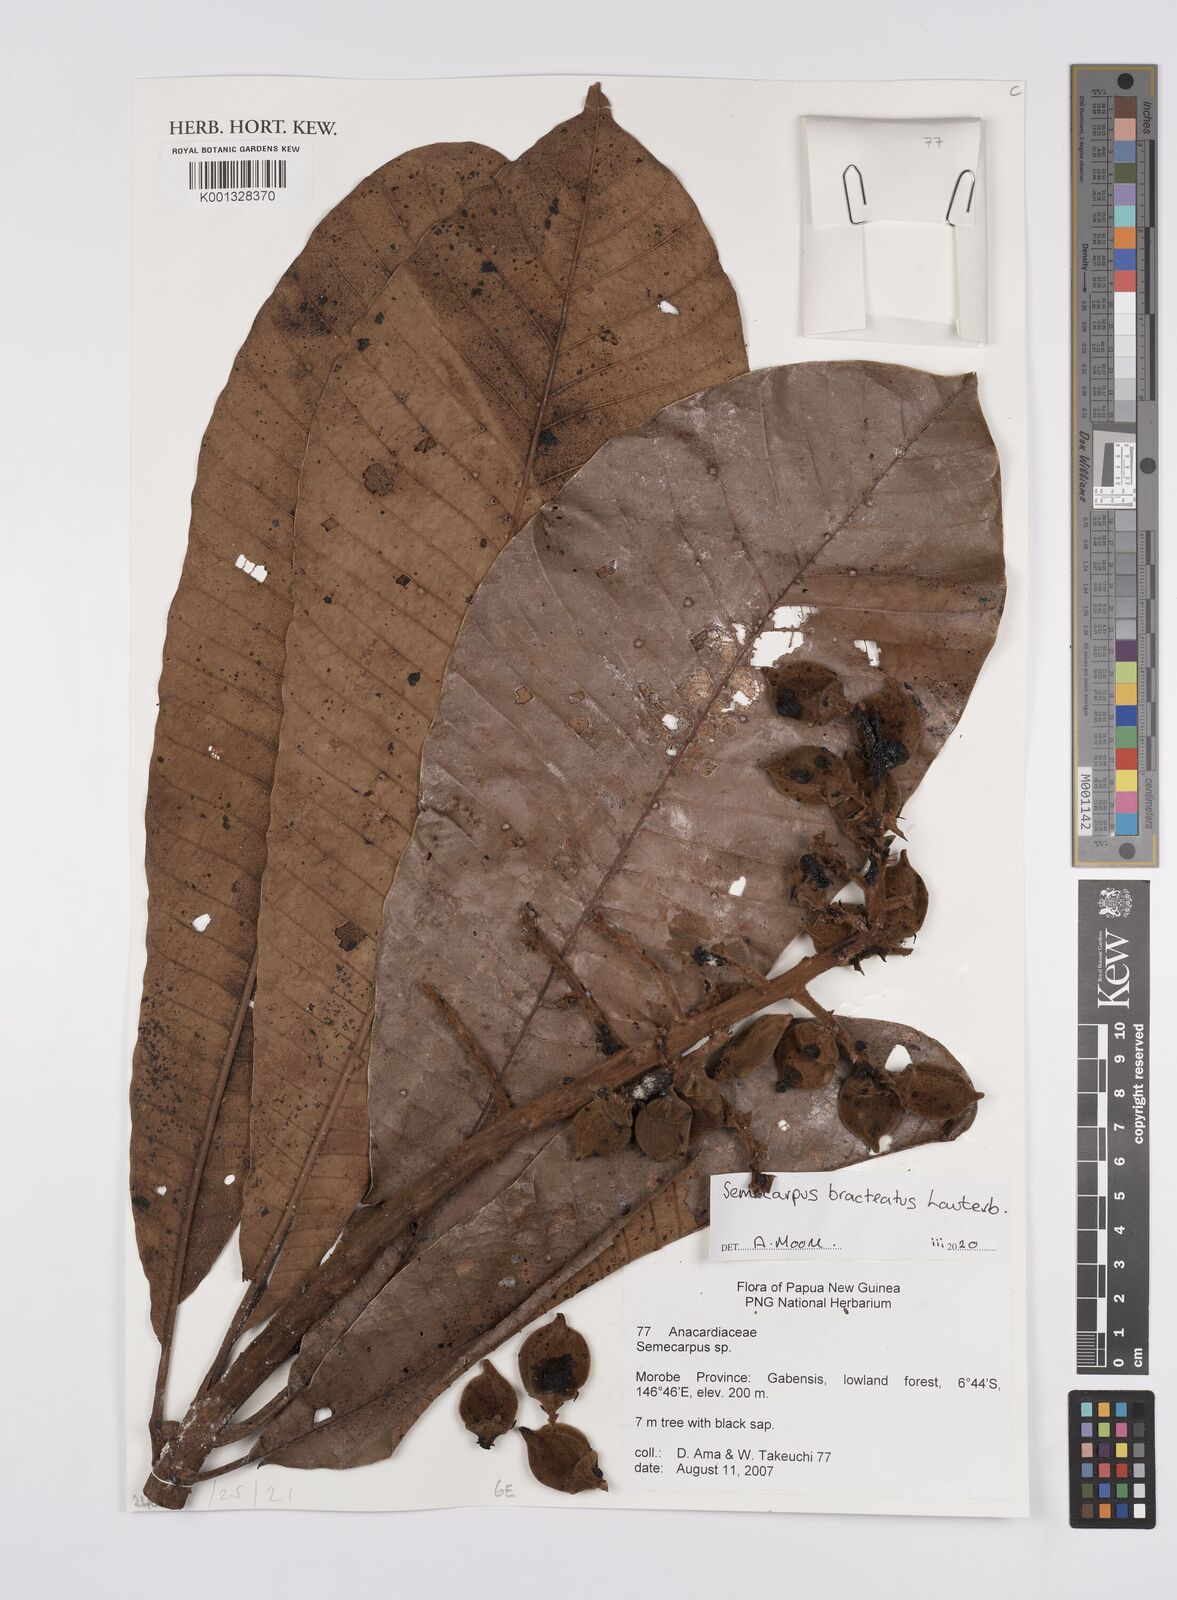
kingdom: Plantae
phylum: Tracheophyta
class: Magnoliopsida
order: Sapindales
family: Anacardiaceae
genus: Semecarpus
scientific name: Semecarpus bracteatus
